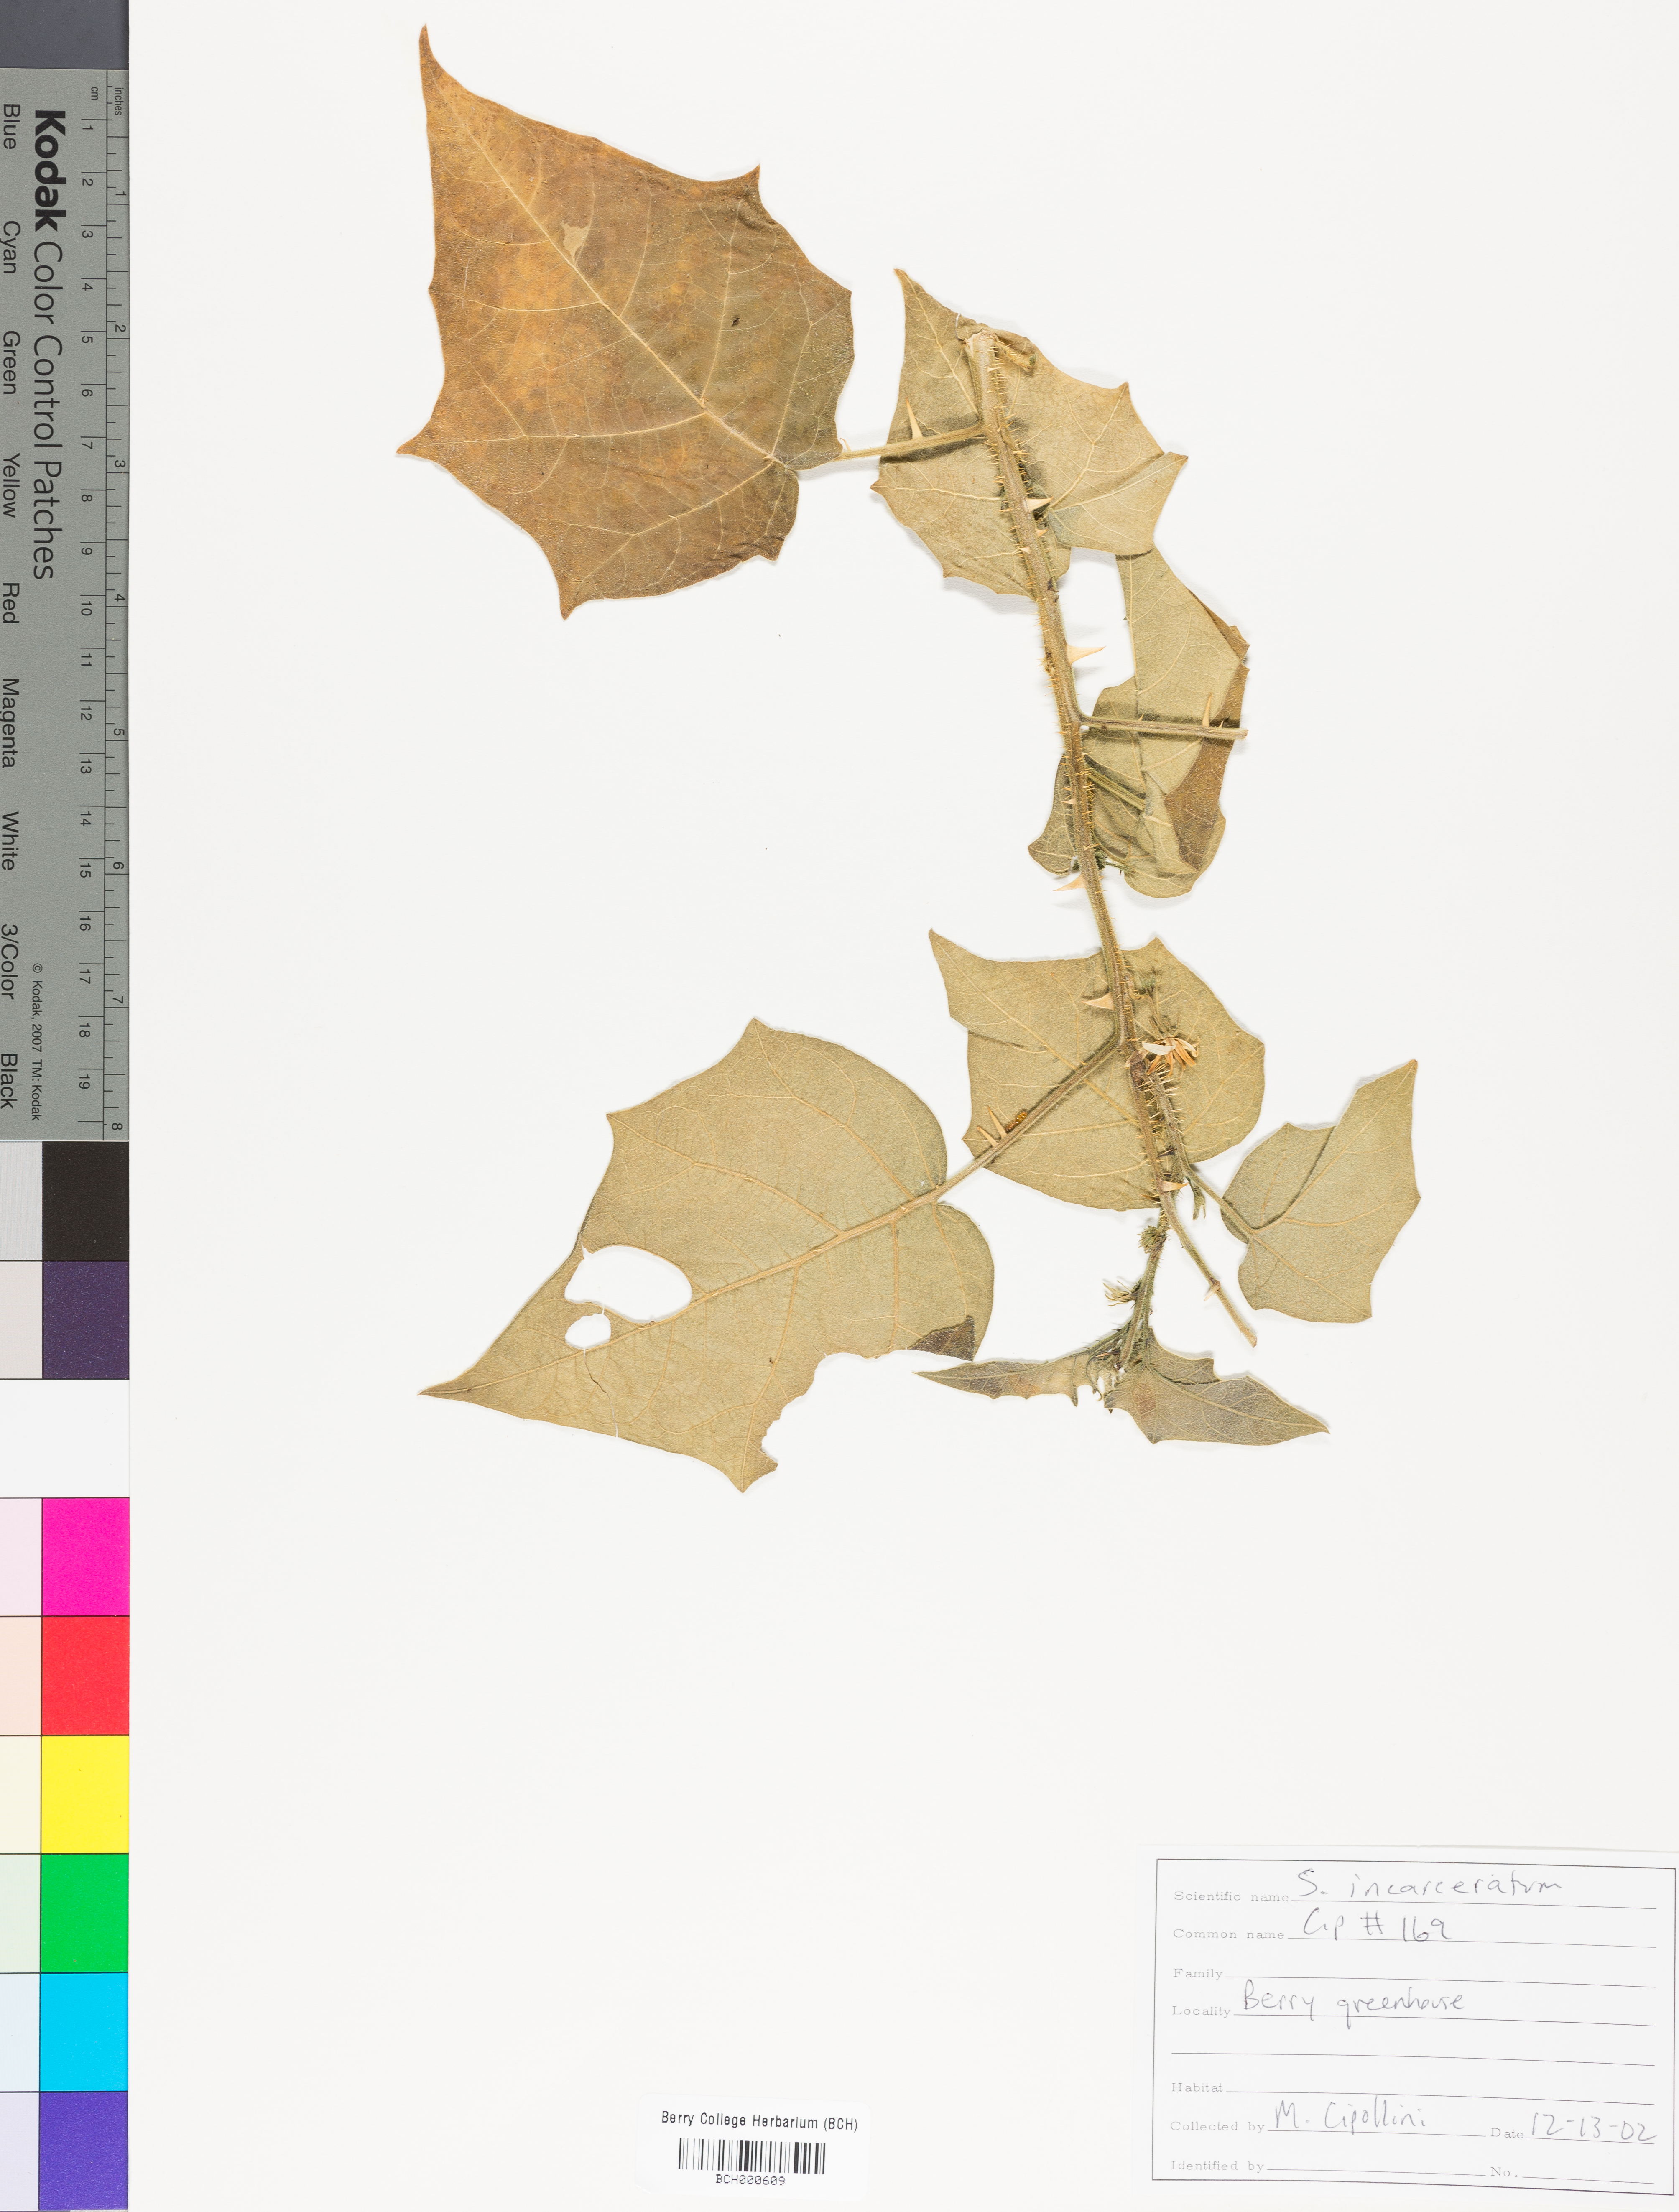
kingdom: Plantae
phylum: Tracheophyta
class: Magnoliopsida
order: Solanales
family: Solanaceae
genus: Solanum
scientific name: Solanum incarceratum
